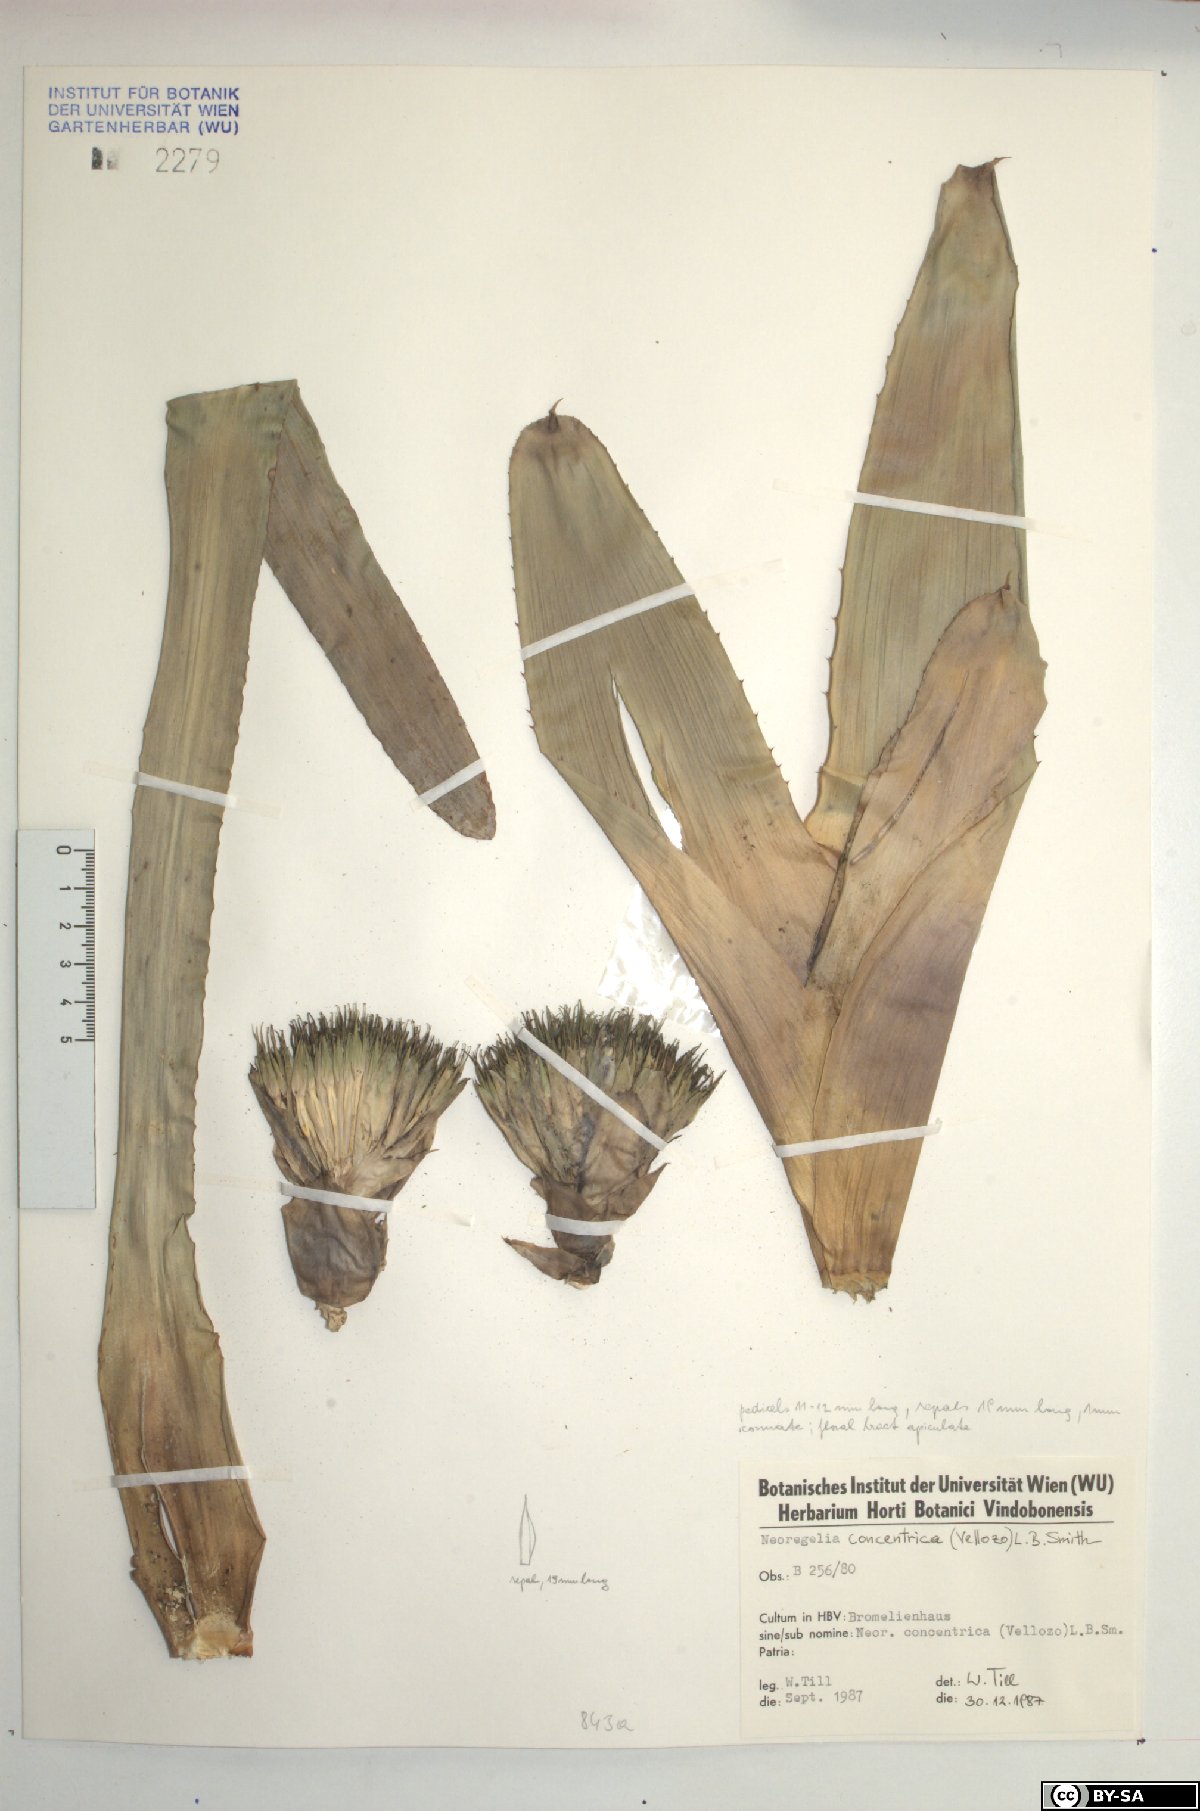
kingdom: Plantae
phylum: Tracheophyta
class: Liliopsida
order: Poales
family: Bromeliaceae
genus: Neoregelia
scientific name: Neoregelia concentrica
